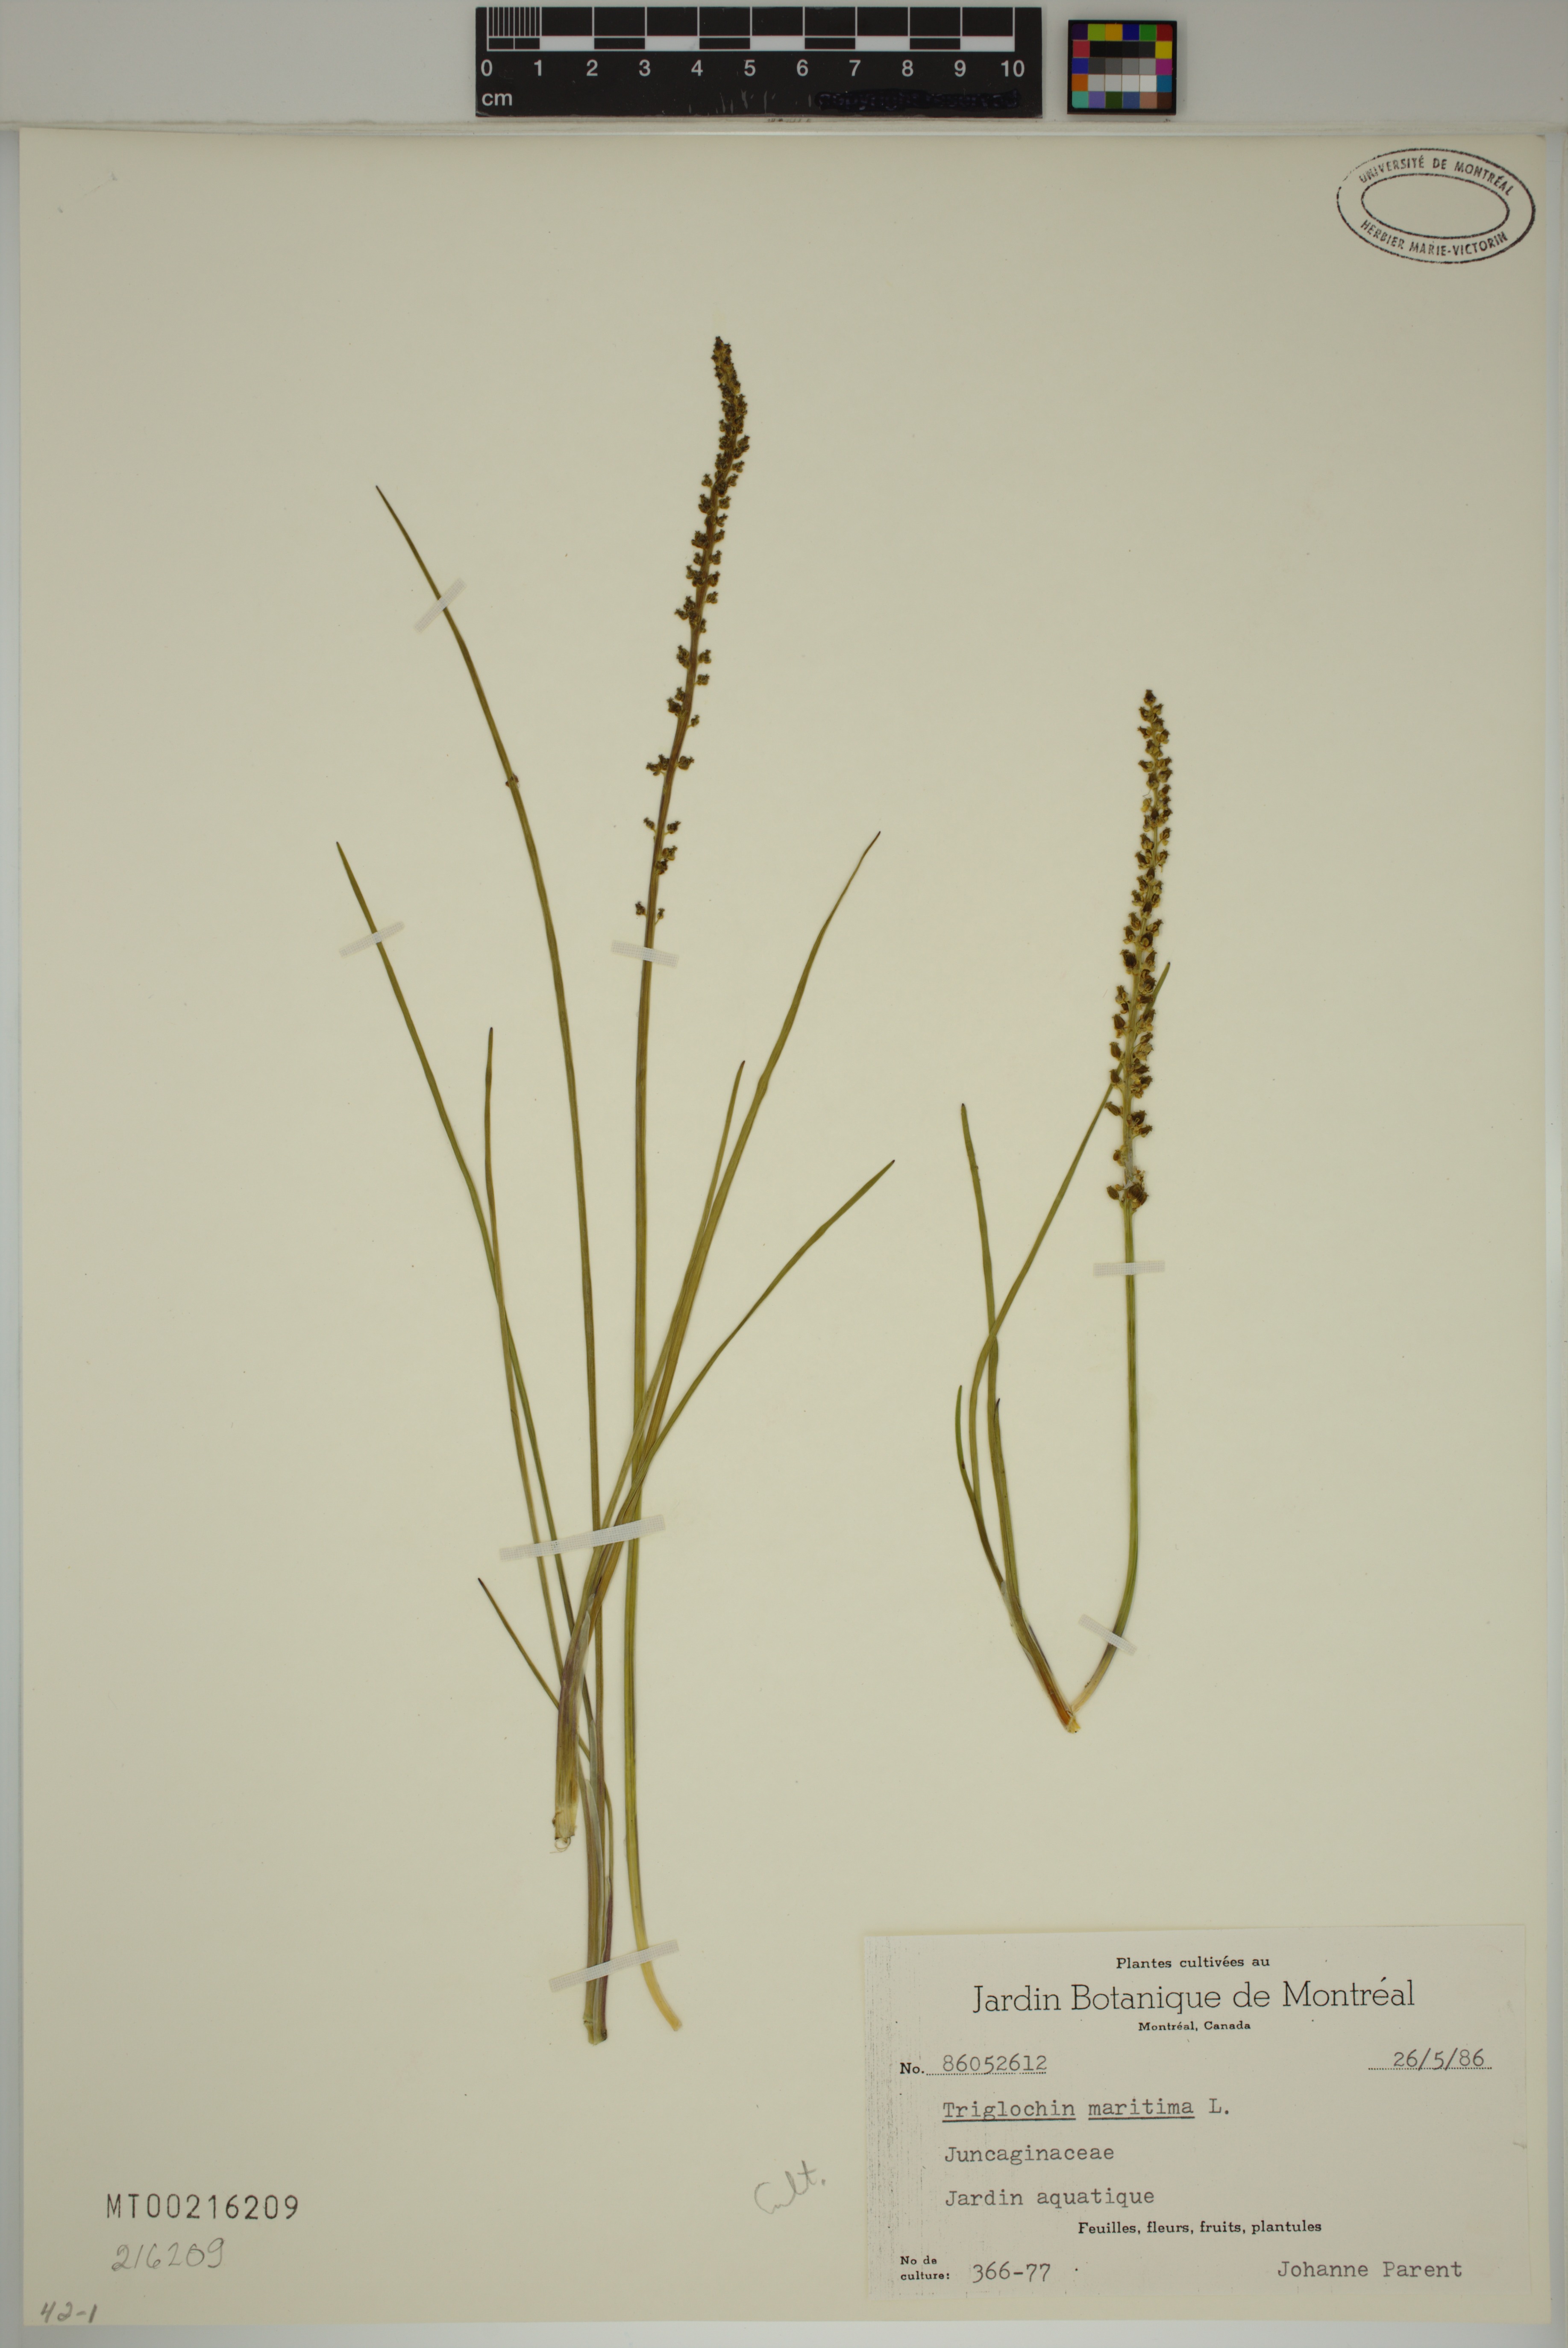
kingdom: Plantae
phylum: Tracheophyta
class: Liliopsida
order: Alismatales
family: Juncaginaceae
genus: Triglochin
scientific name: Triglochin maritima
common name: Sea arrowgrass
